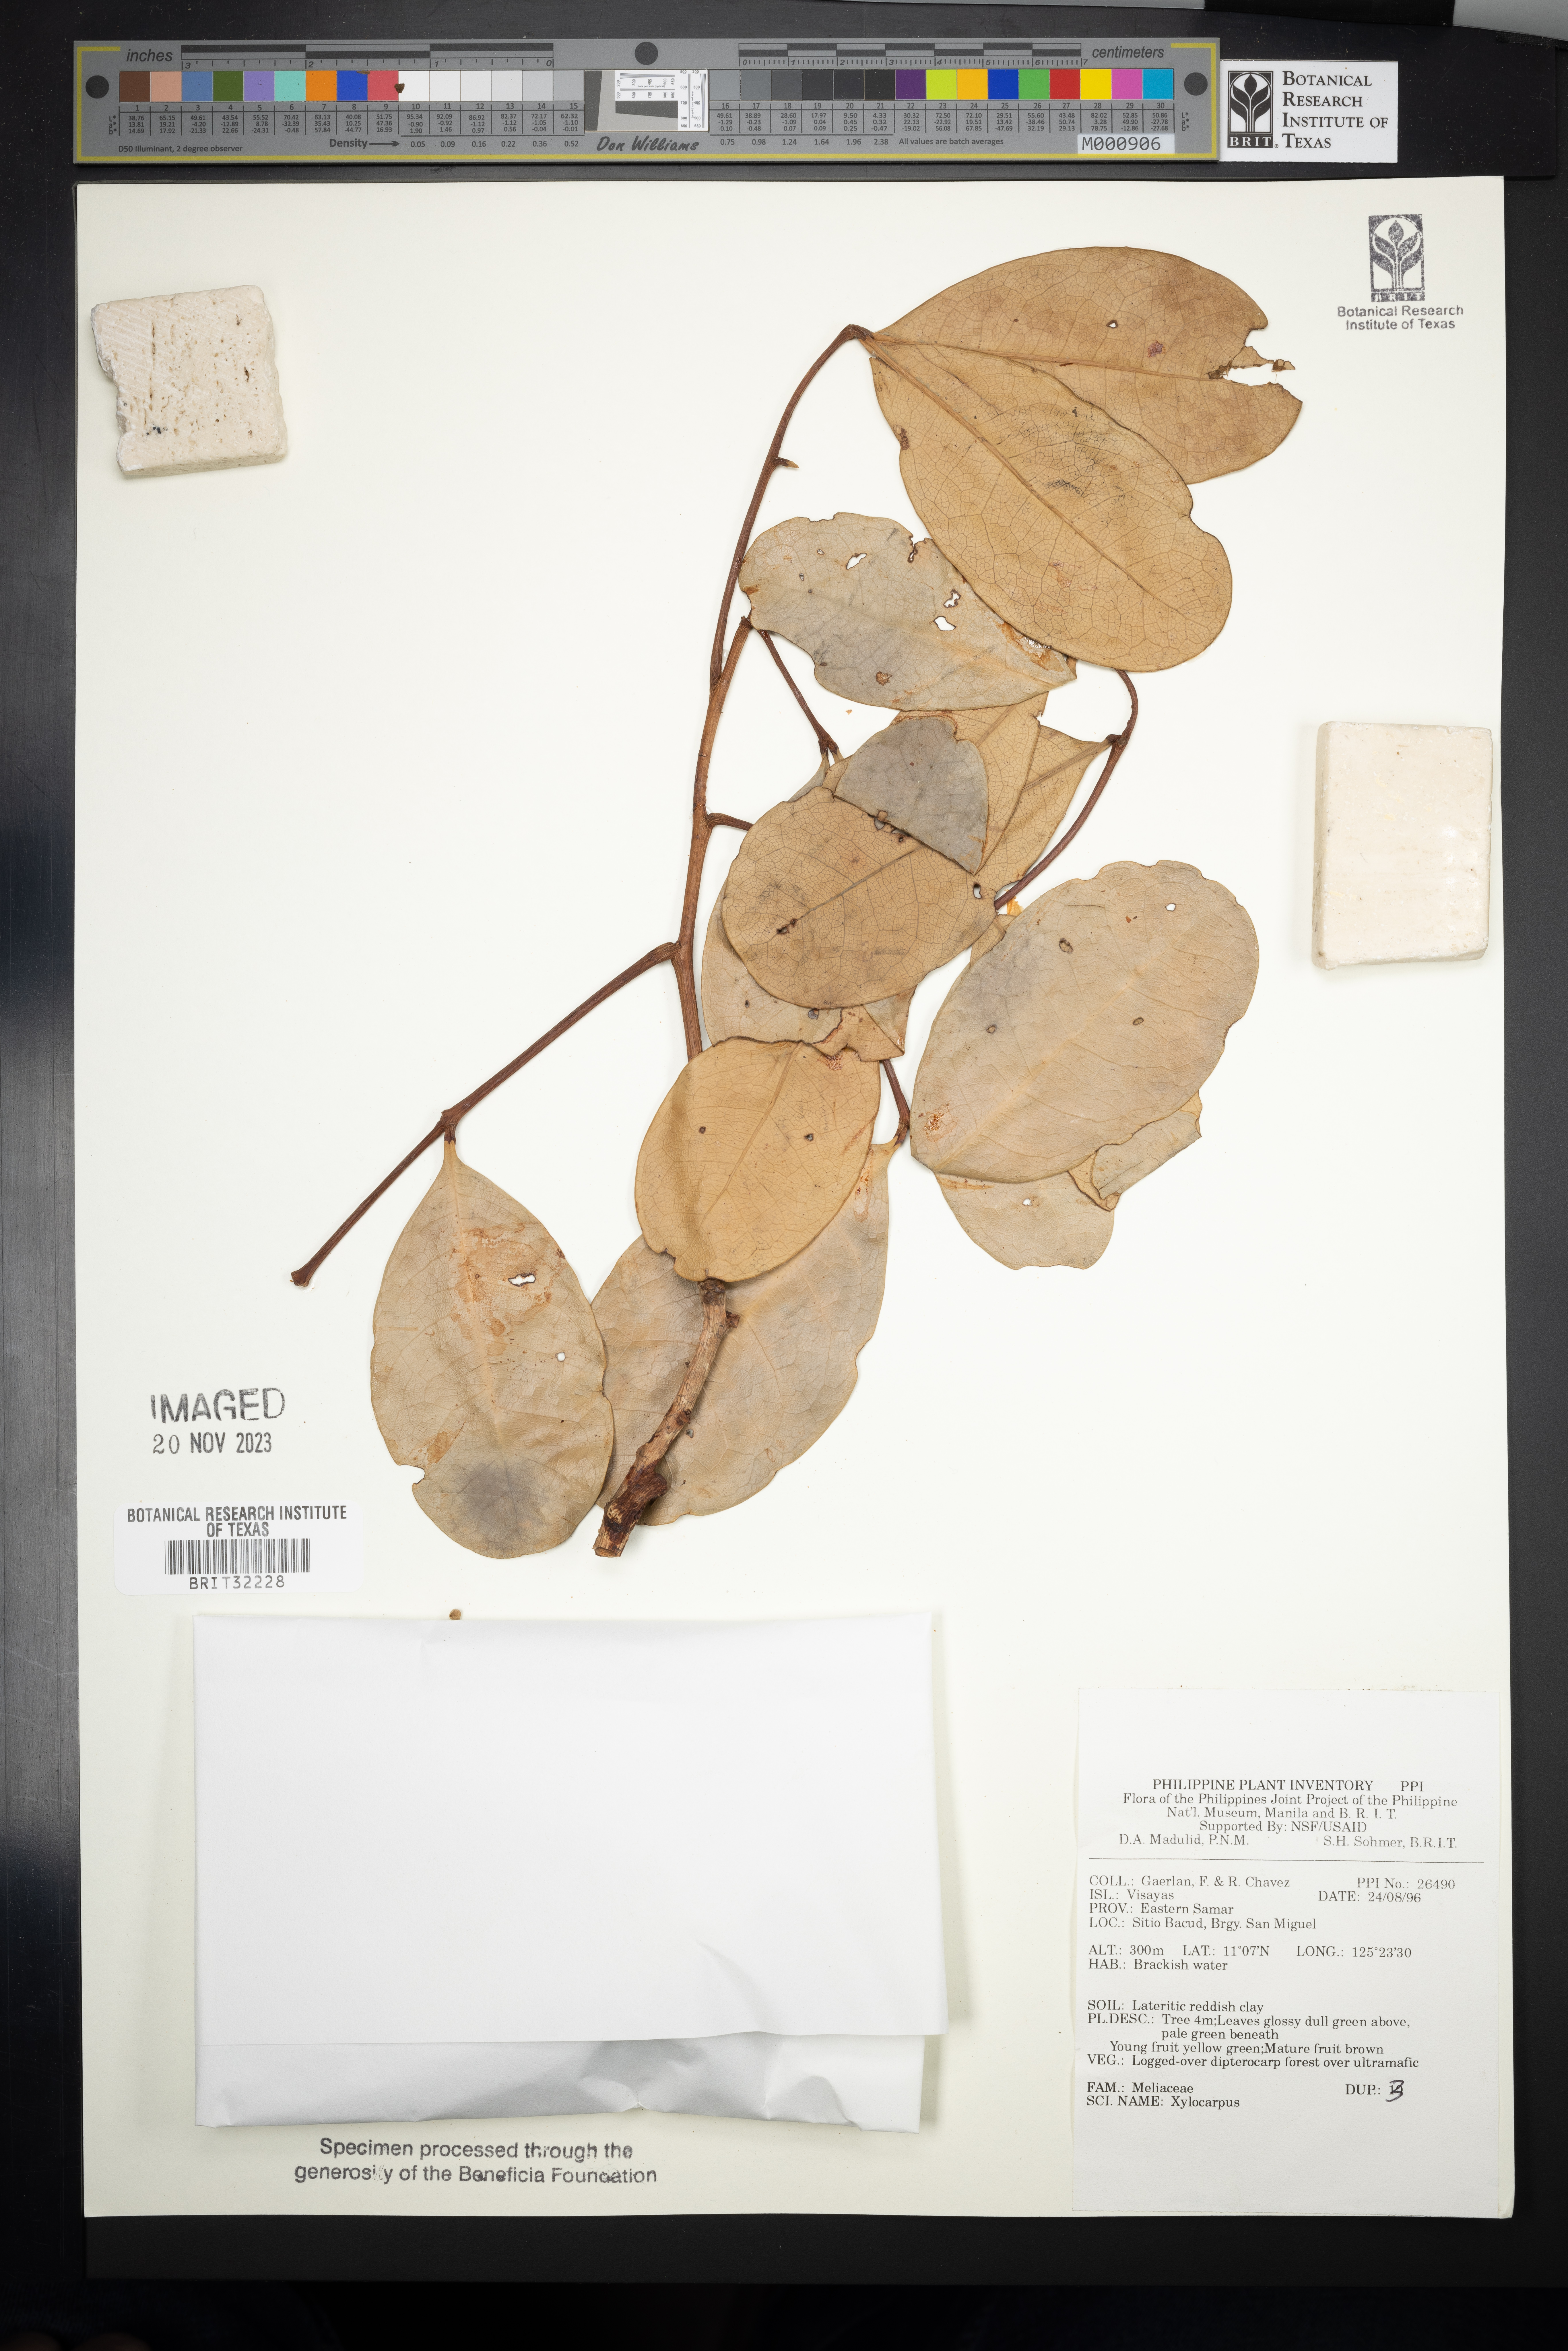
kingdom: Plantae
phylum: Tracheophyta
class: Magnoliopsida
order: Sapindales
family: Meliaceae
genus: Xylocarpus
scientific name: Xylocarpus
